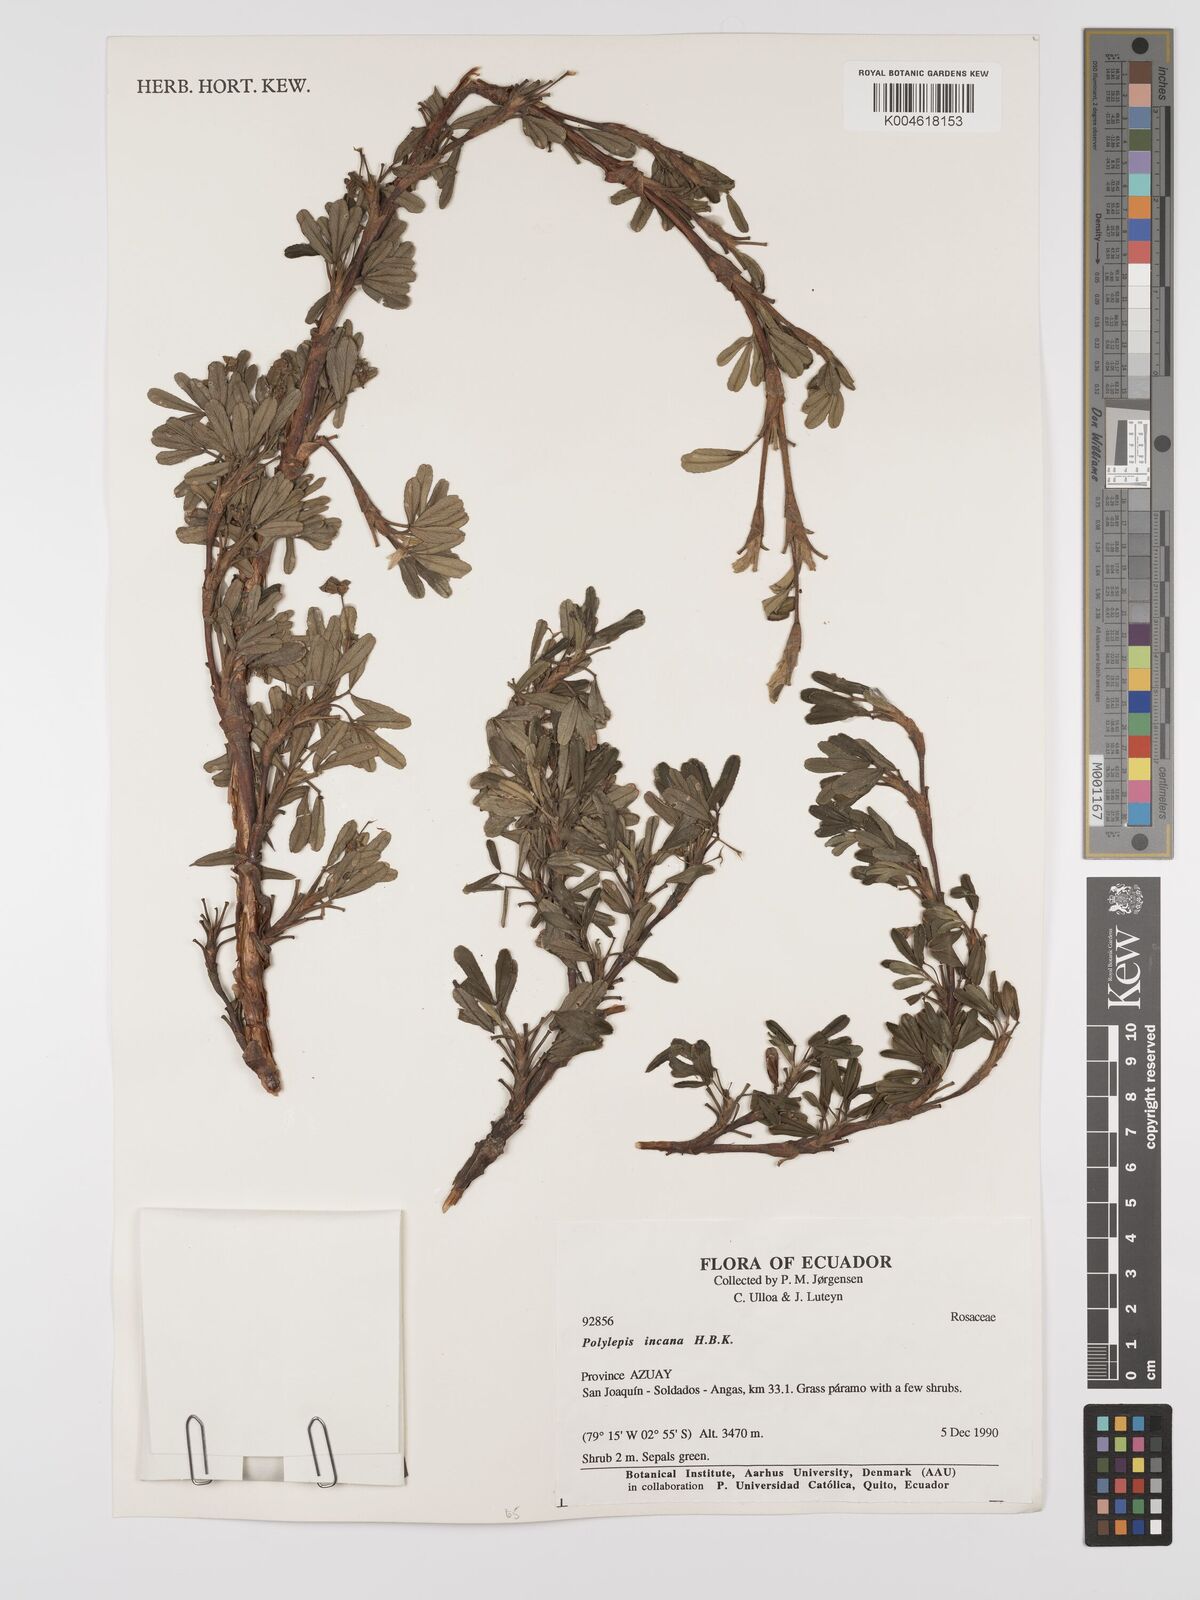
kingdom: Plantae
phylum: Tracheophyta
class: Magnoliopsida
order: Rosales
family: Rosaceae
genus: Polylepis
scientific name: Polylepis incana
